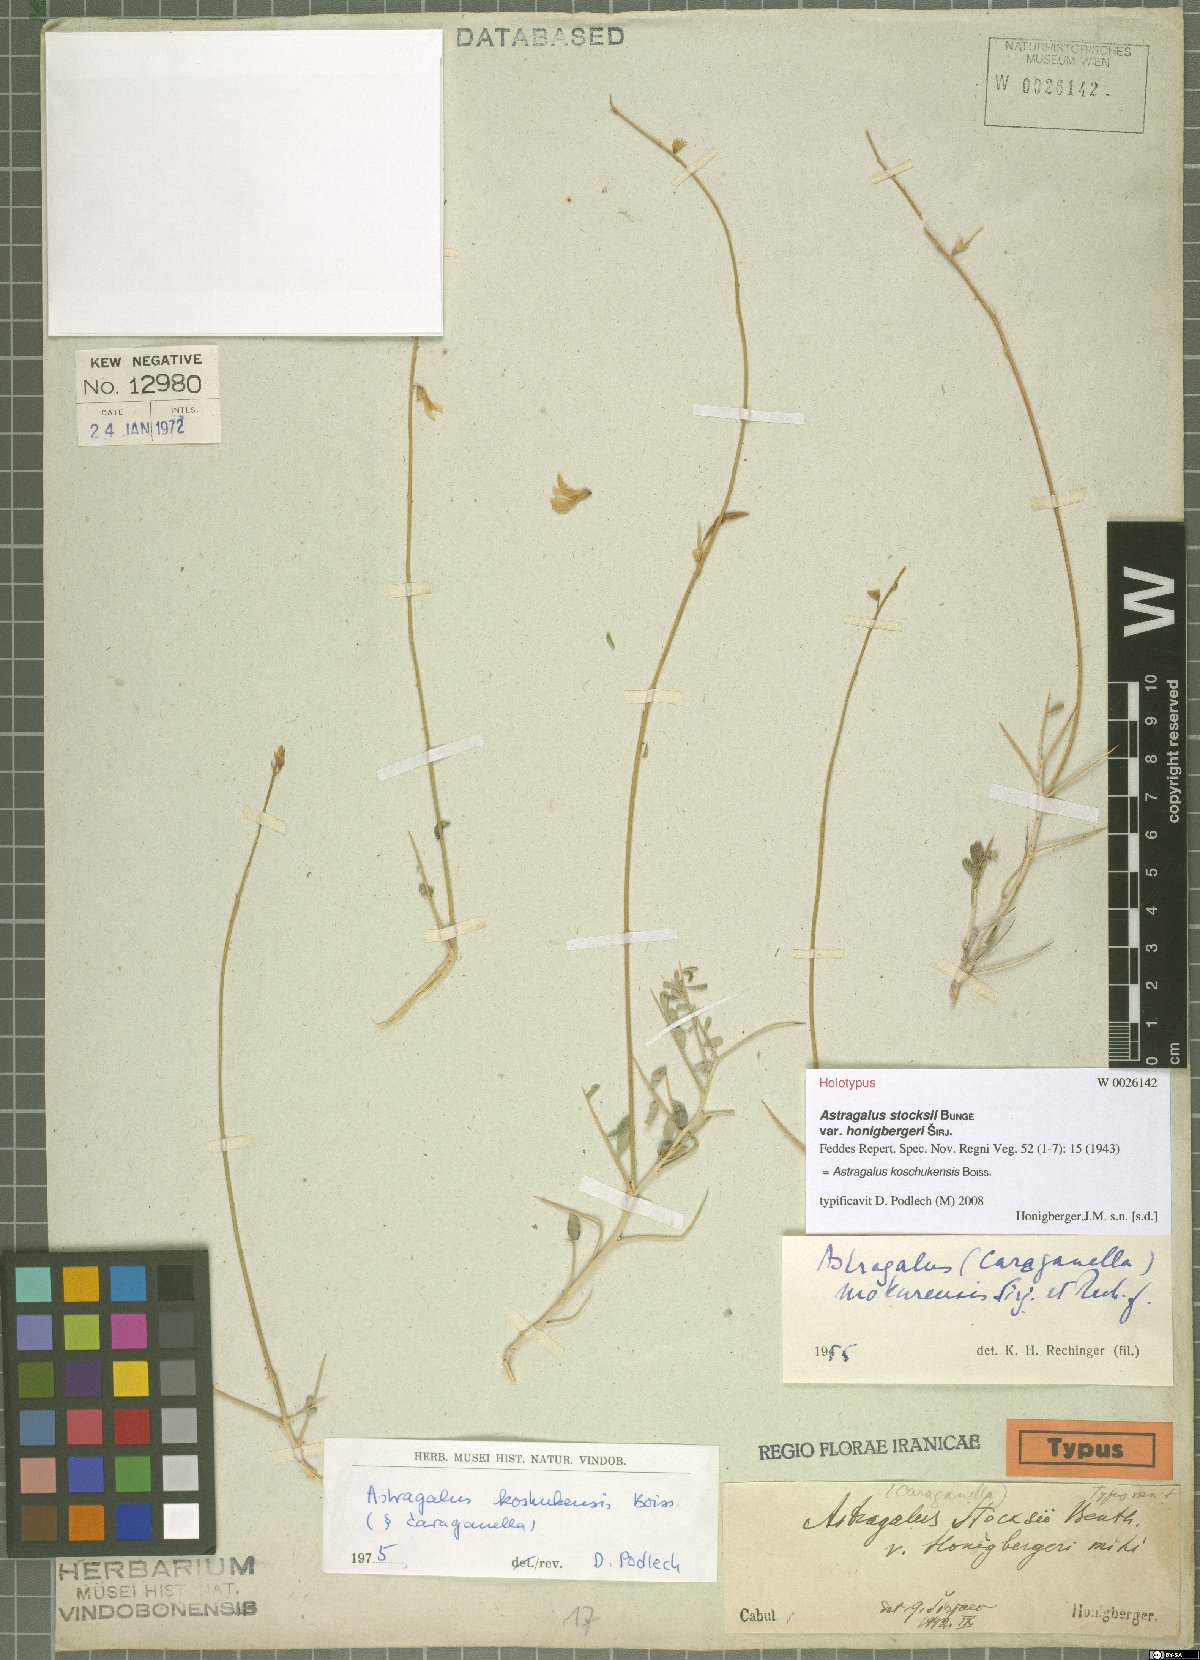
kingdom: Plantae
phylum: Tracheophyta
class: Magnoliopsida
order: Fabales
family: Fabaceae
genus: Astragalus
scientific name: Astragalus koschukensis
